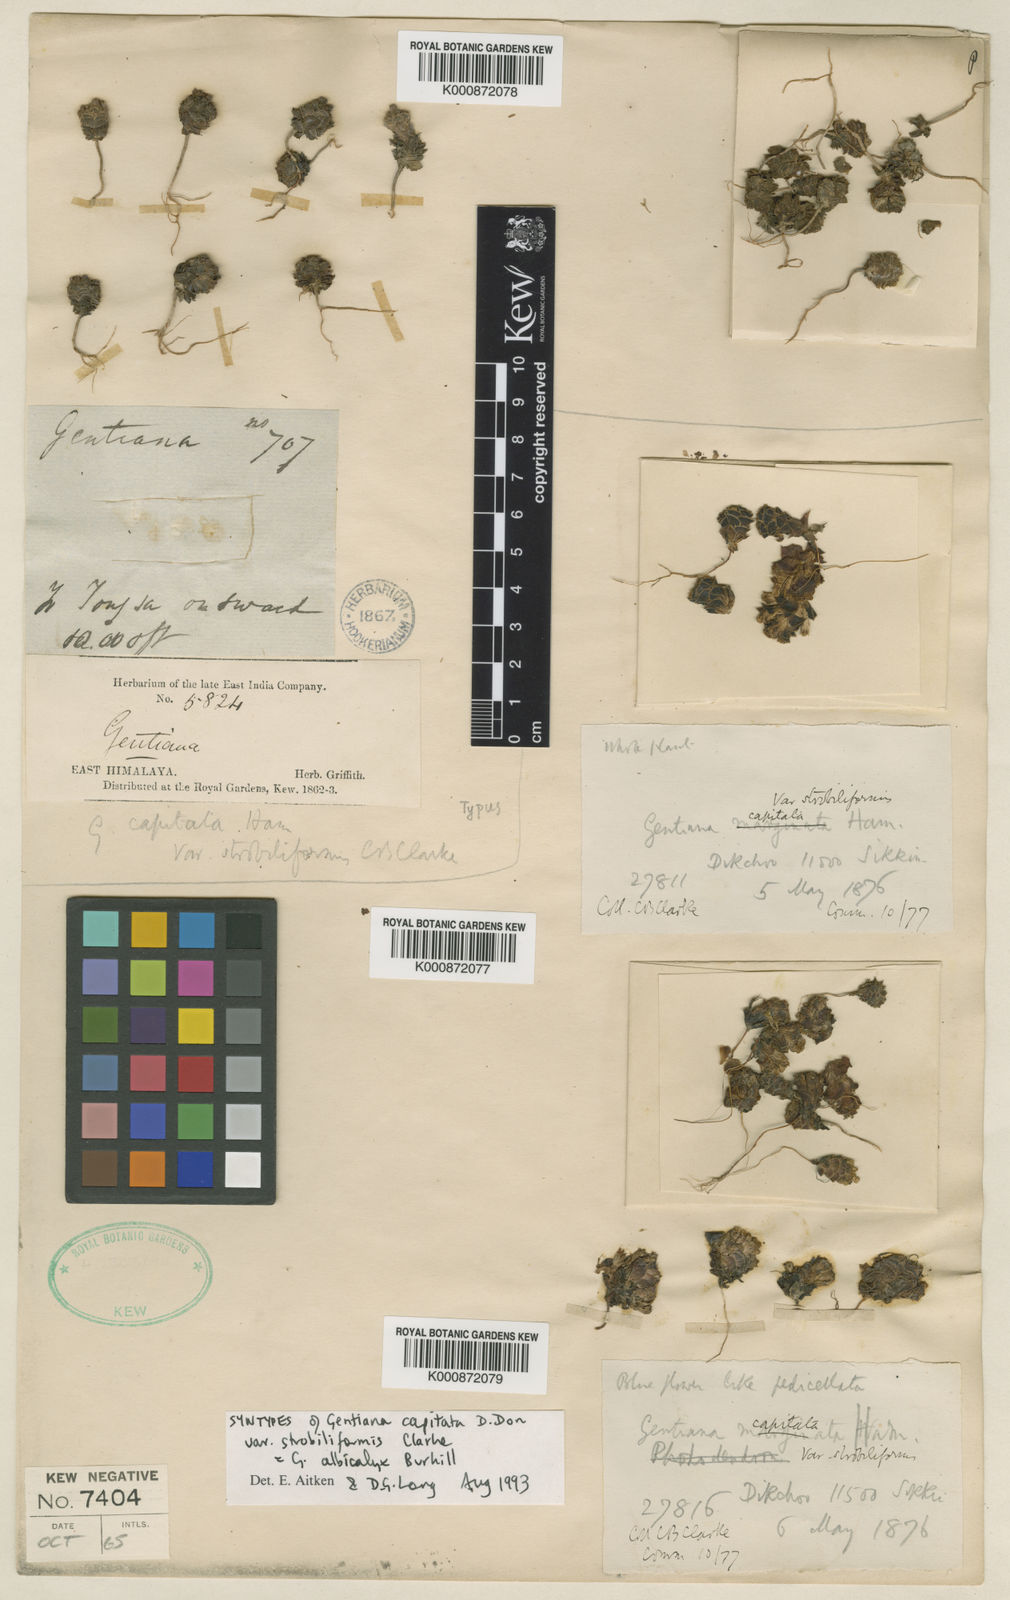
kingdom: Plantae
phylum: Tracheophyta
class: Magnoliopsida
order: Gentianales
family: Gentianaceae
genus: Gentiana
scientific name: Gentiana albicalyx
